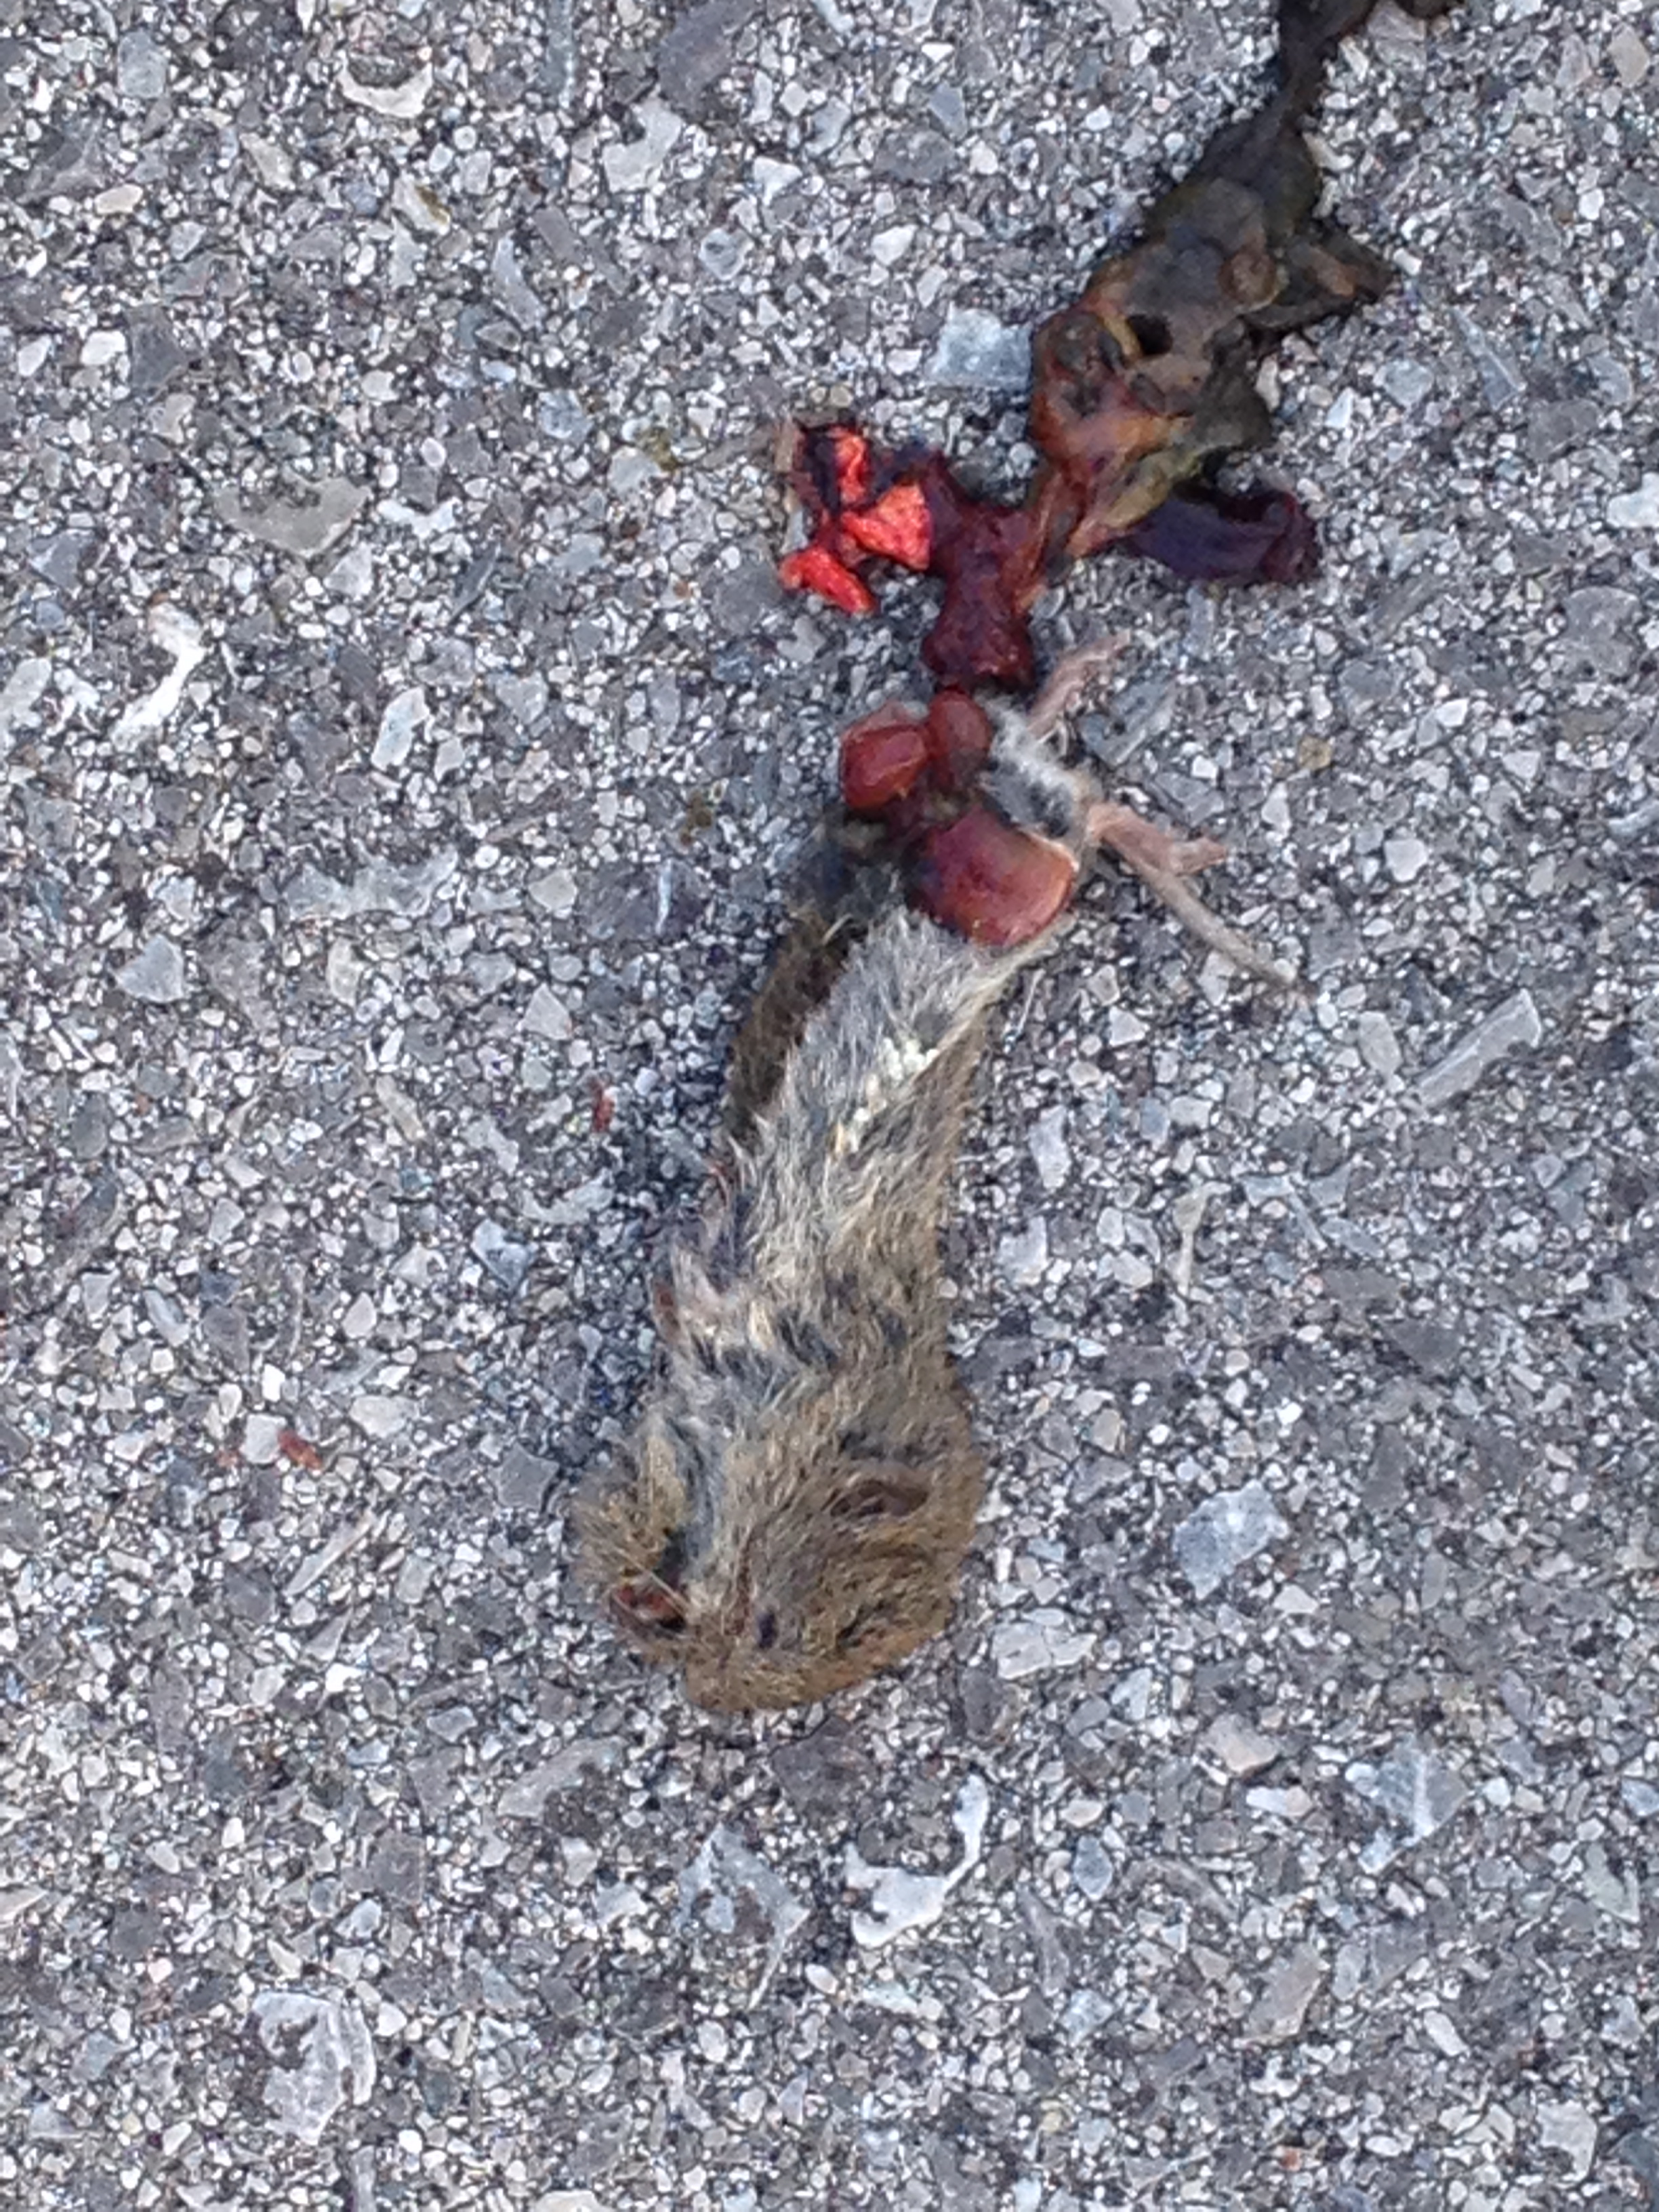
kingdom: Animalia
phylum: Chordata
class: Mammalia
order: Rodentia
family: Cricetidae
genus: Microtus
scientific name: Microtus
